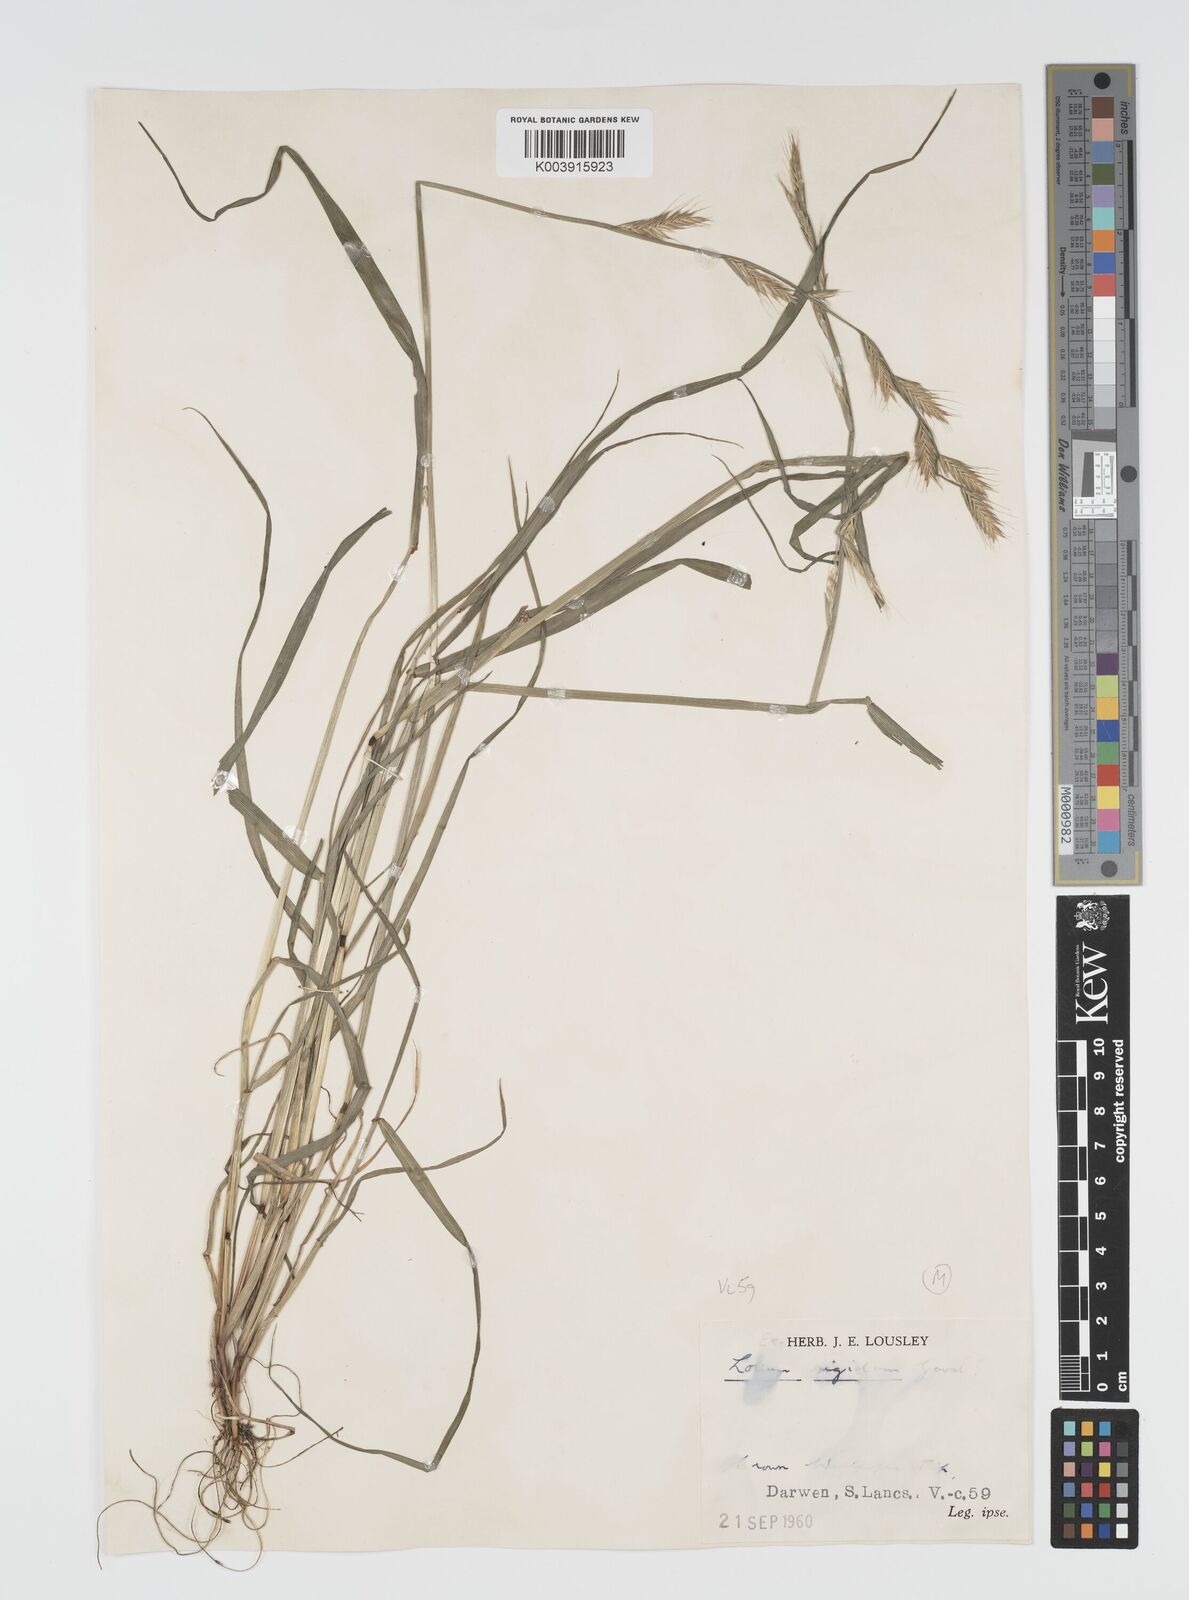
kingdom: Plantae
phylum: Tracheophyta
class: Liliopsida
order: Poales
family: Poaceae
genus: Lolium
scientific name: Lolium multiflorum
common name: Annual ryegrass
